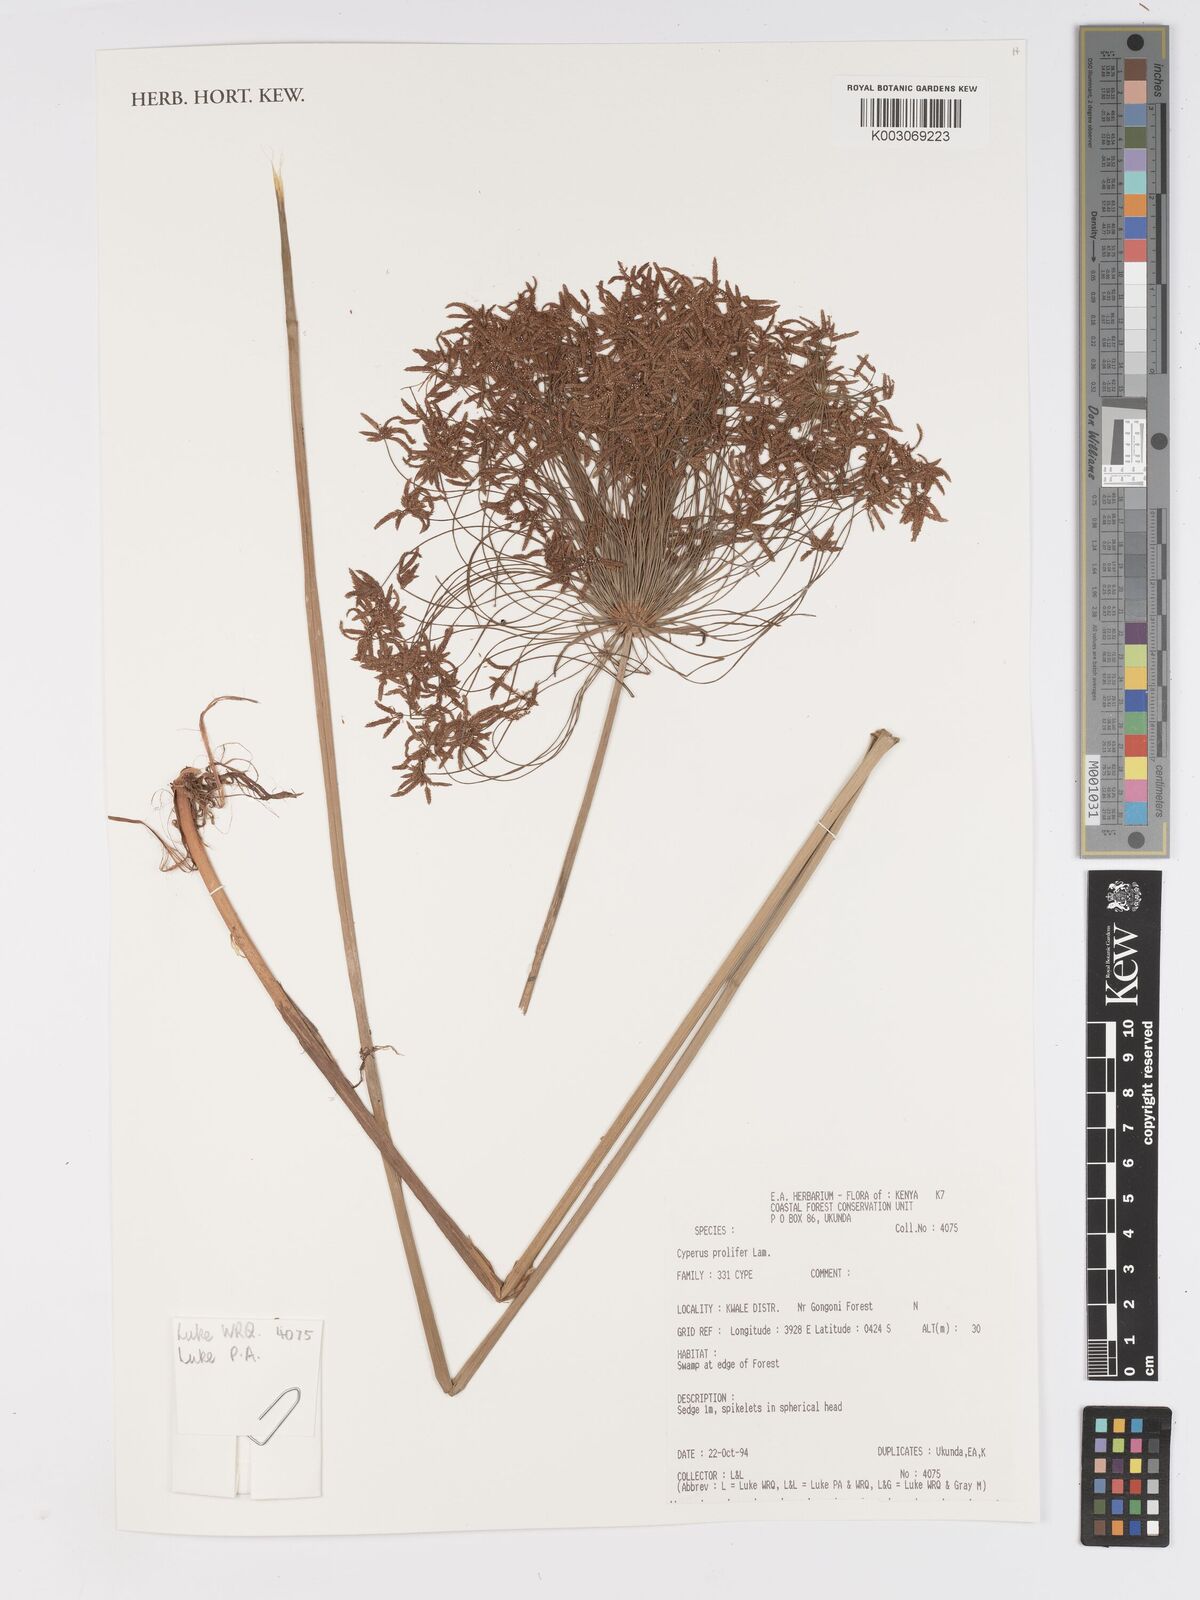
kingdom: Plantae
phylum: Tracheophyta
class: Liliopsida
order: Poales
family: Cyperaceae
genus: Cyperus
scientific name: Cyperus prolifer
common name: Miniature flatsedge
